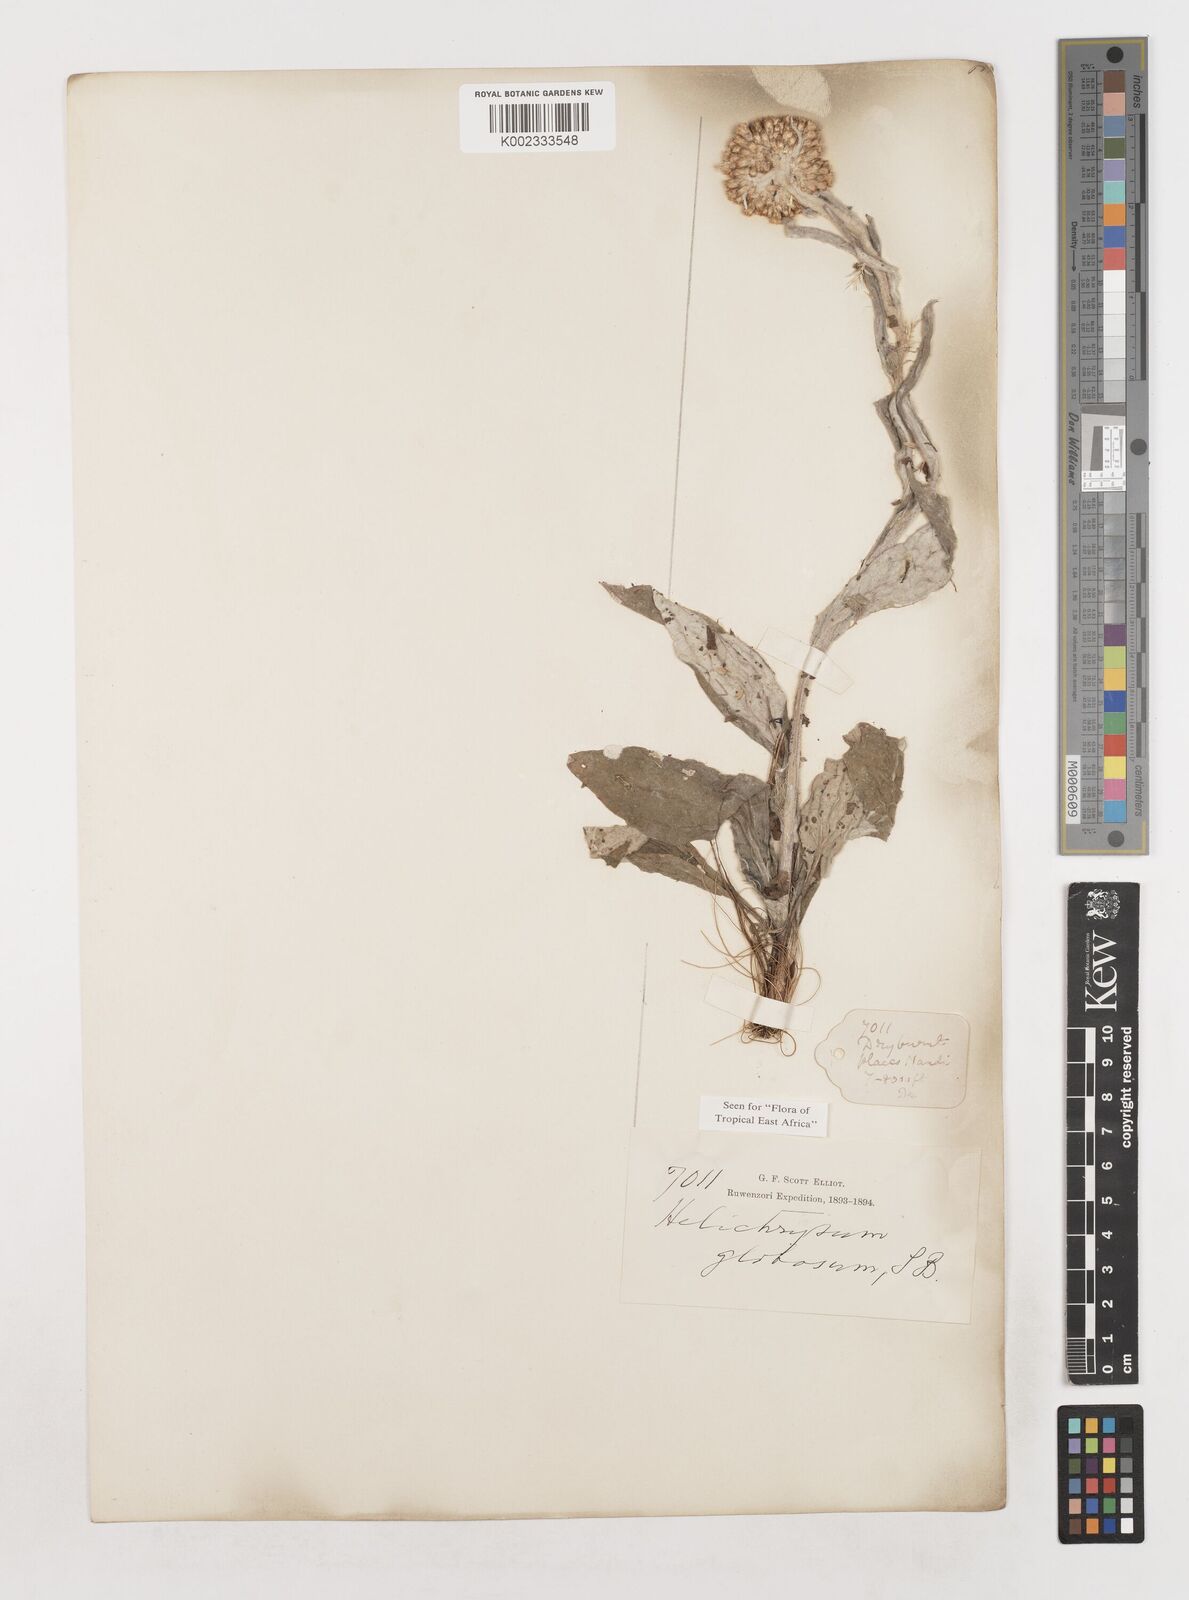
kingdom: Plantae
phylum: Tracheophyta
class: Magnoliopsida
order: Asterales
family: Asteraceae
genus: Helichrysum
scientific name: Helichrysum globosum
